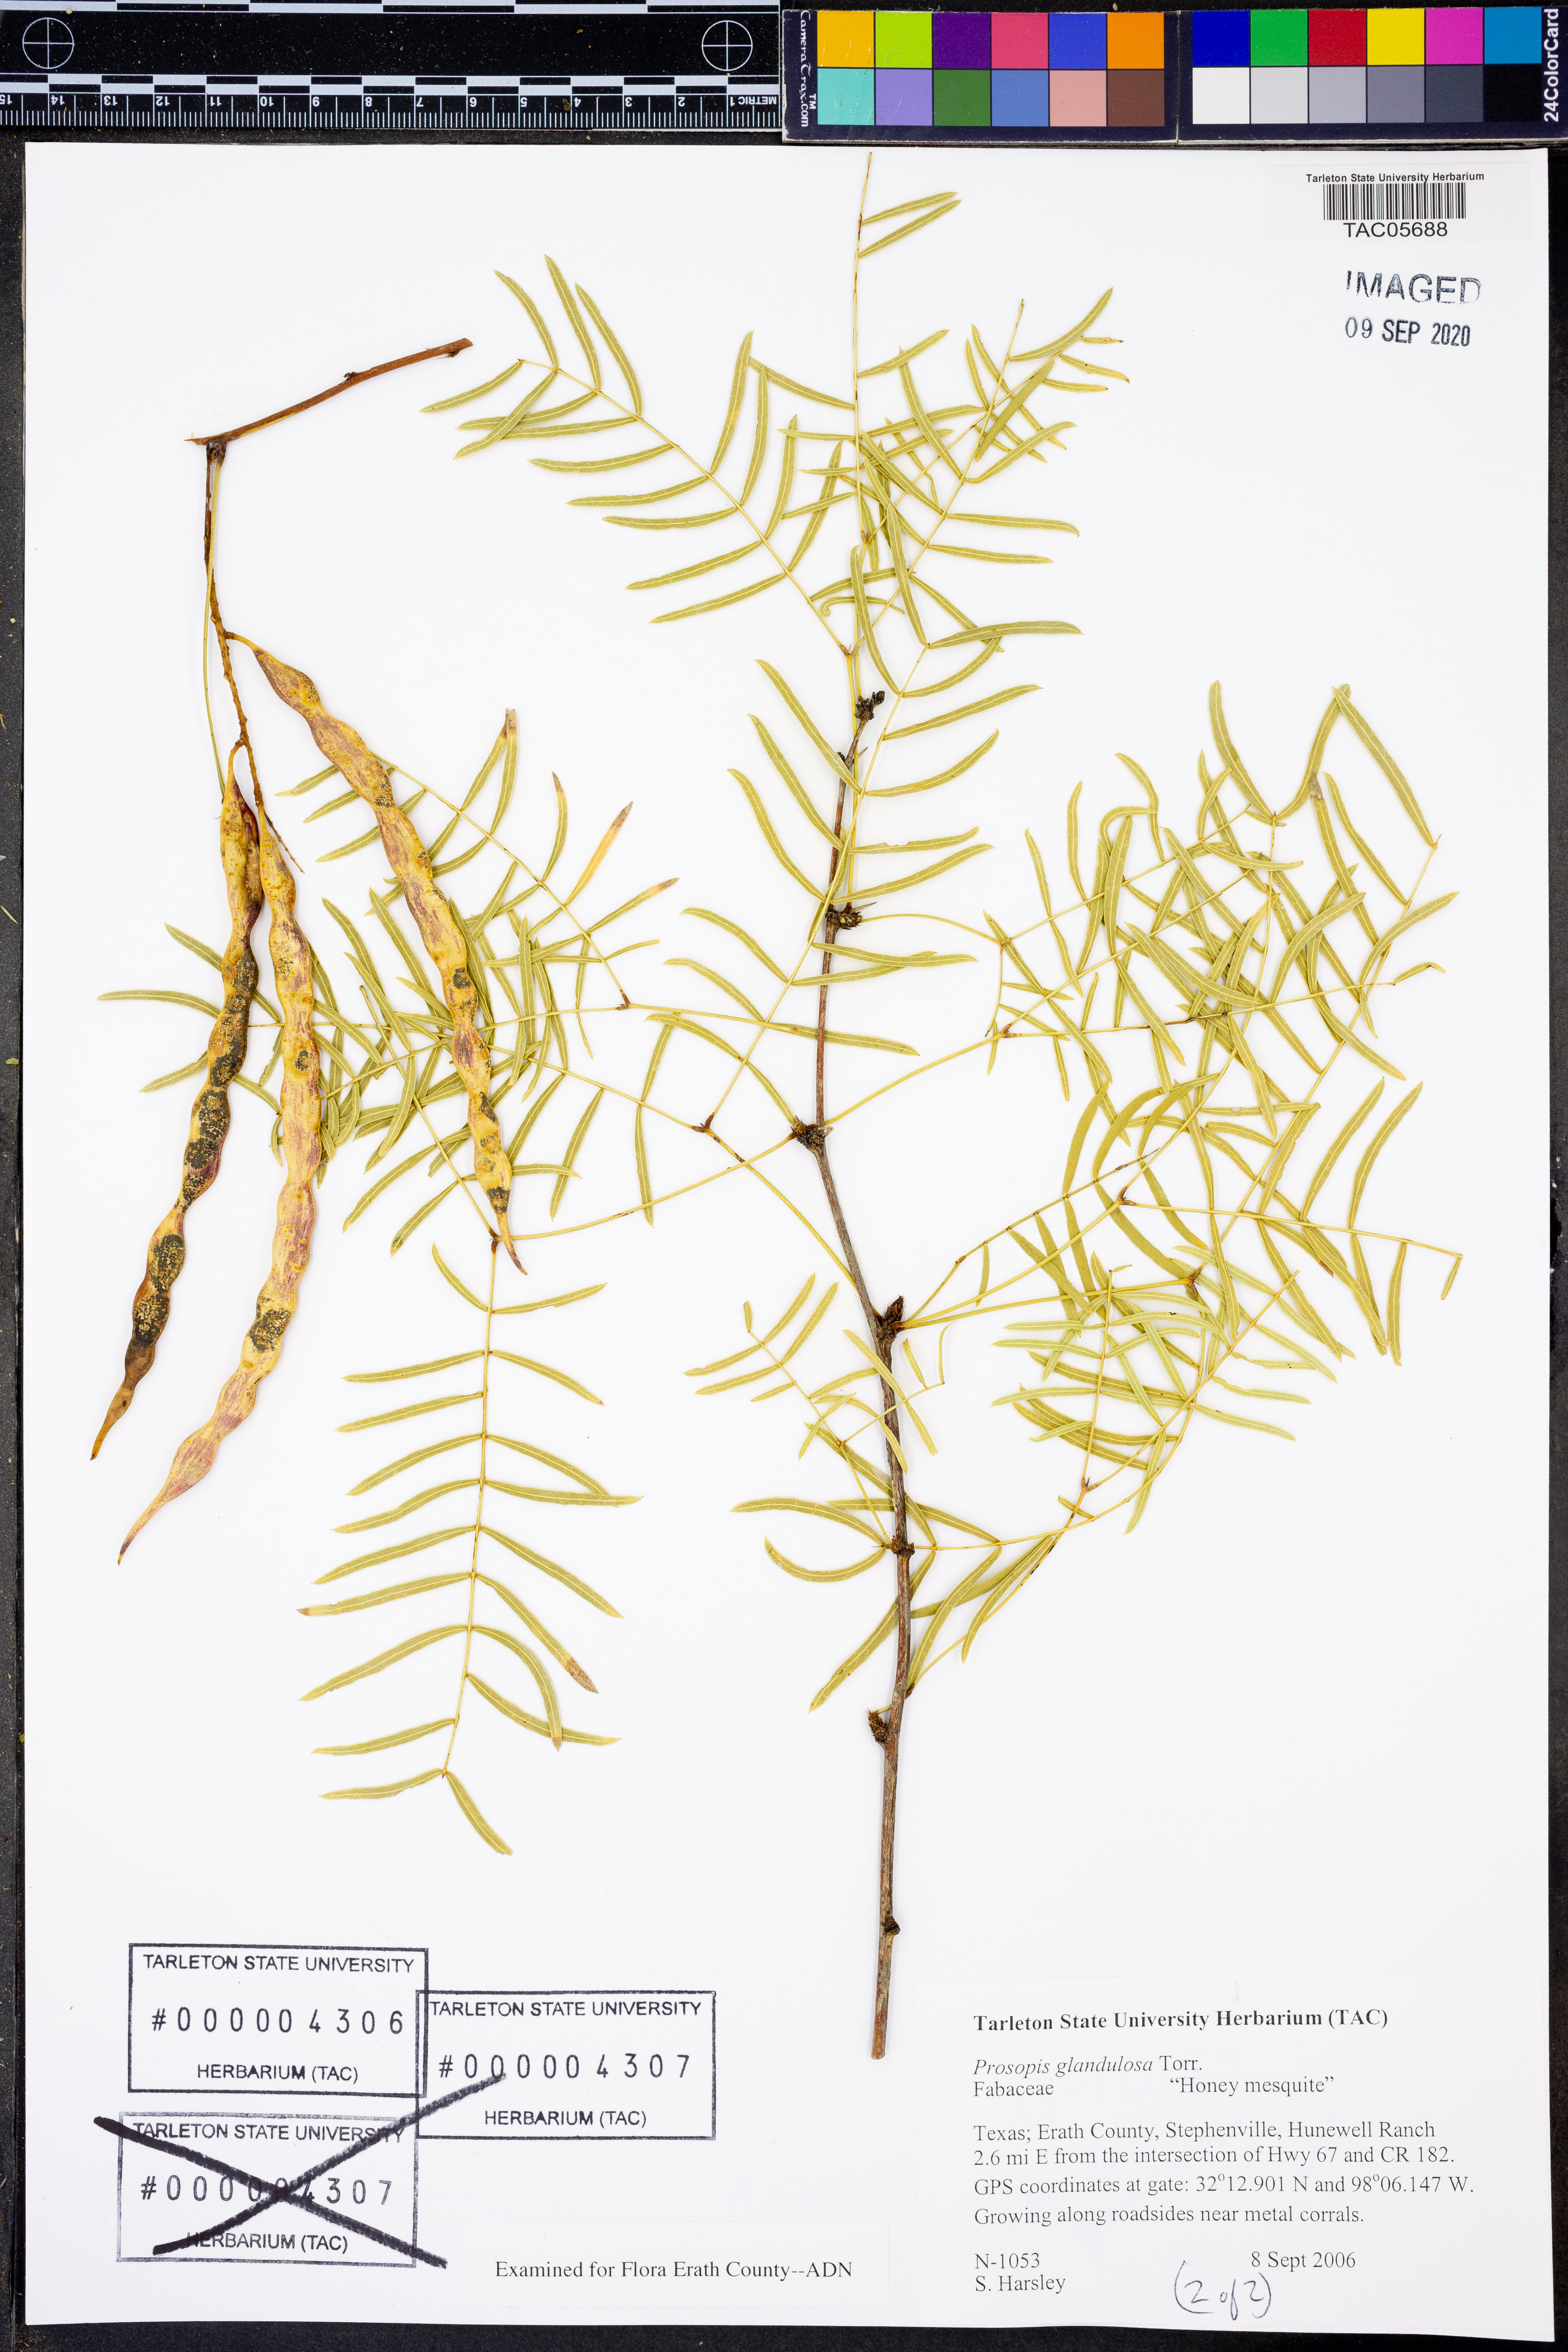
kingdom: Plantae
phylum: Tracheophyta
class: Magnoliopsida
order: Fabales
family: Fabaceae
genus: Prosopis
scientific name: Prosopis glandulosa
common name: Honey mesquite
